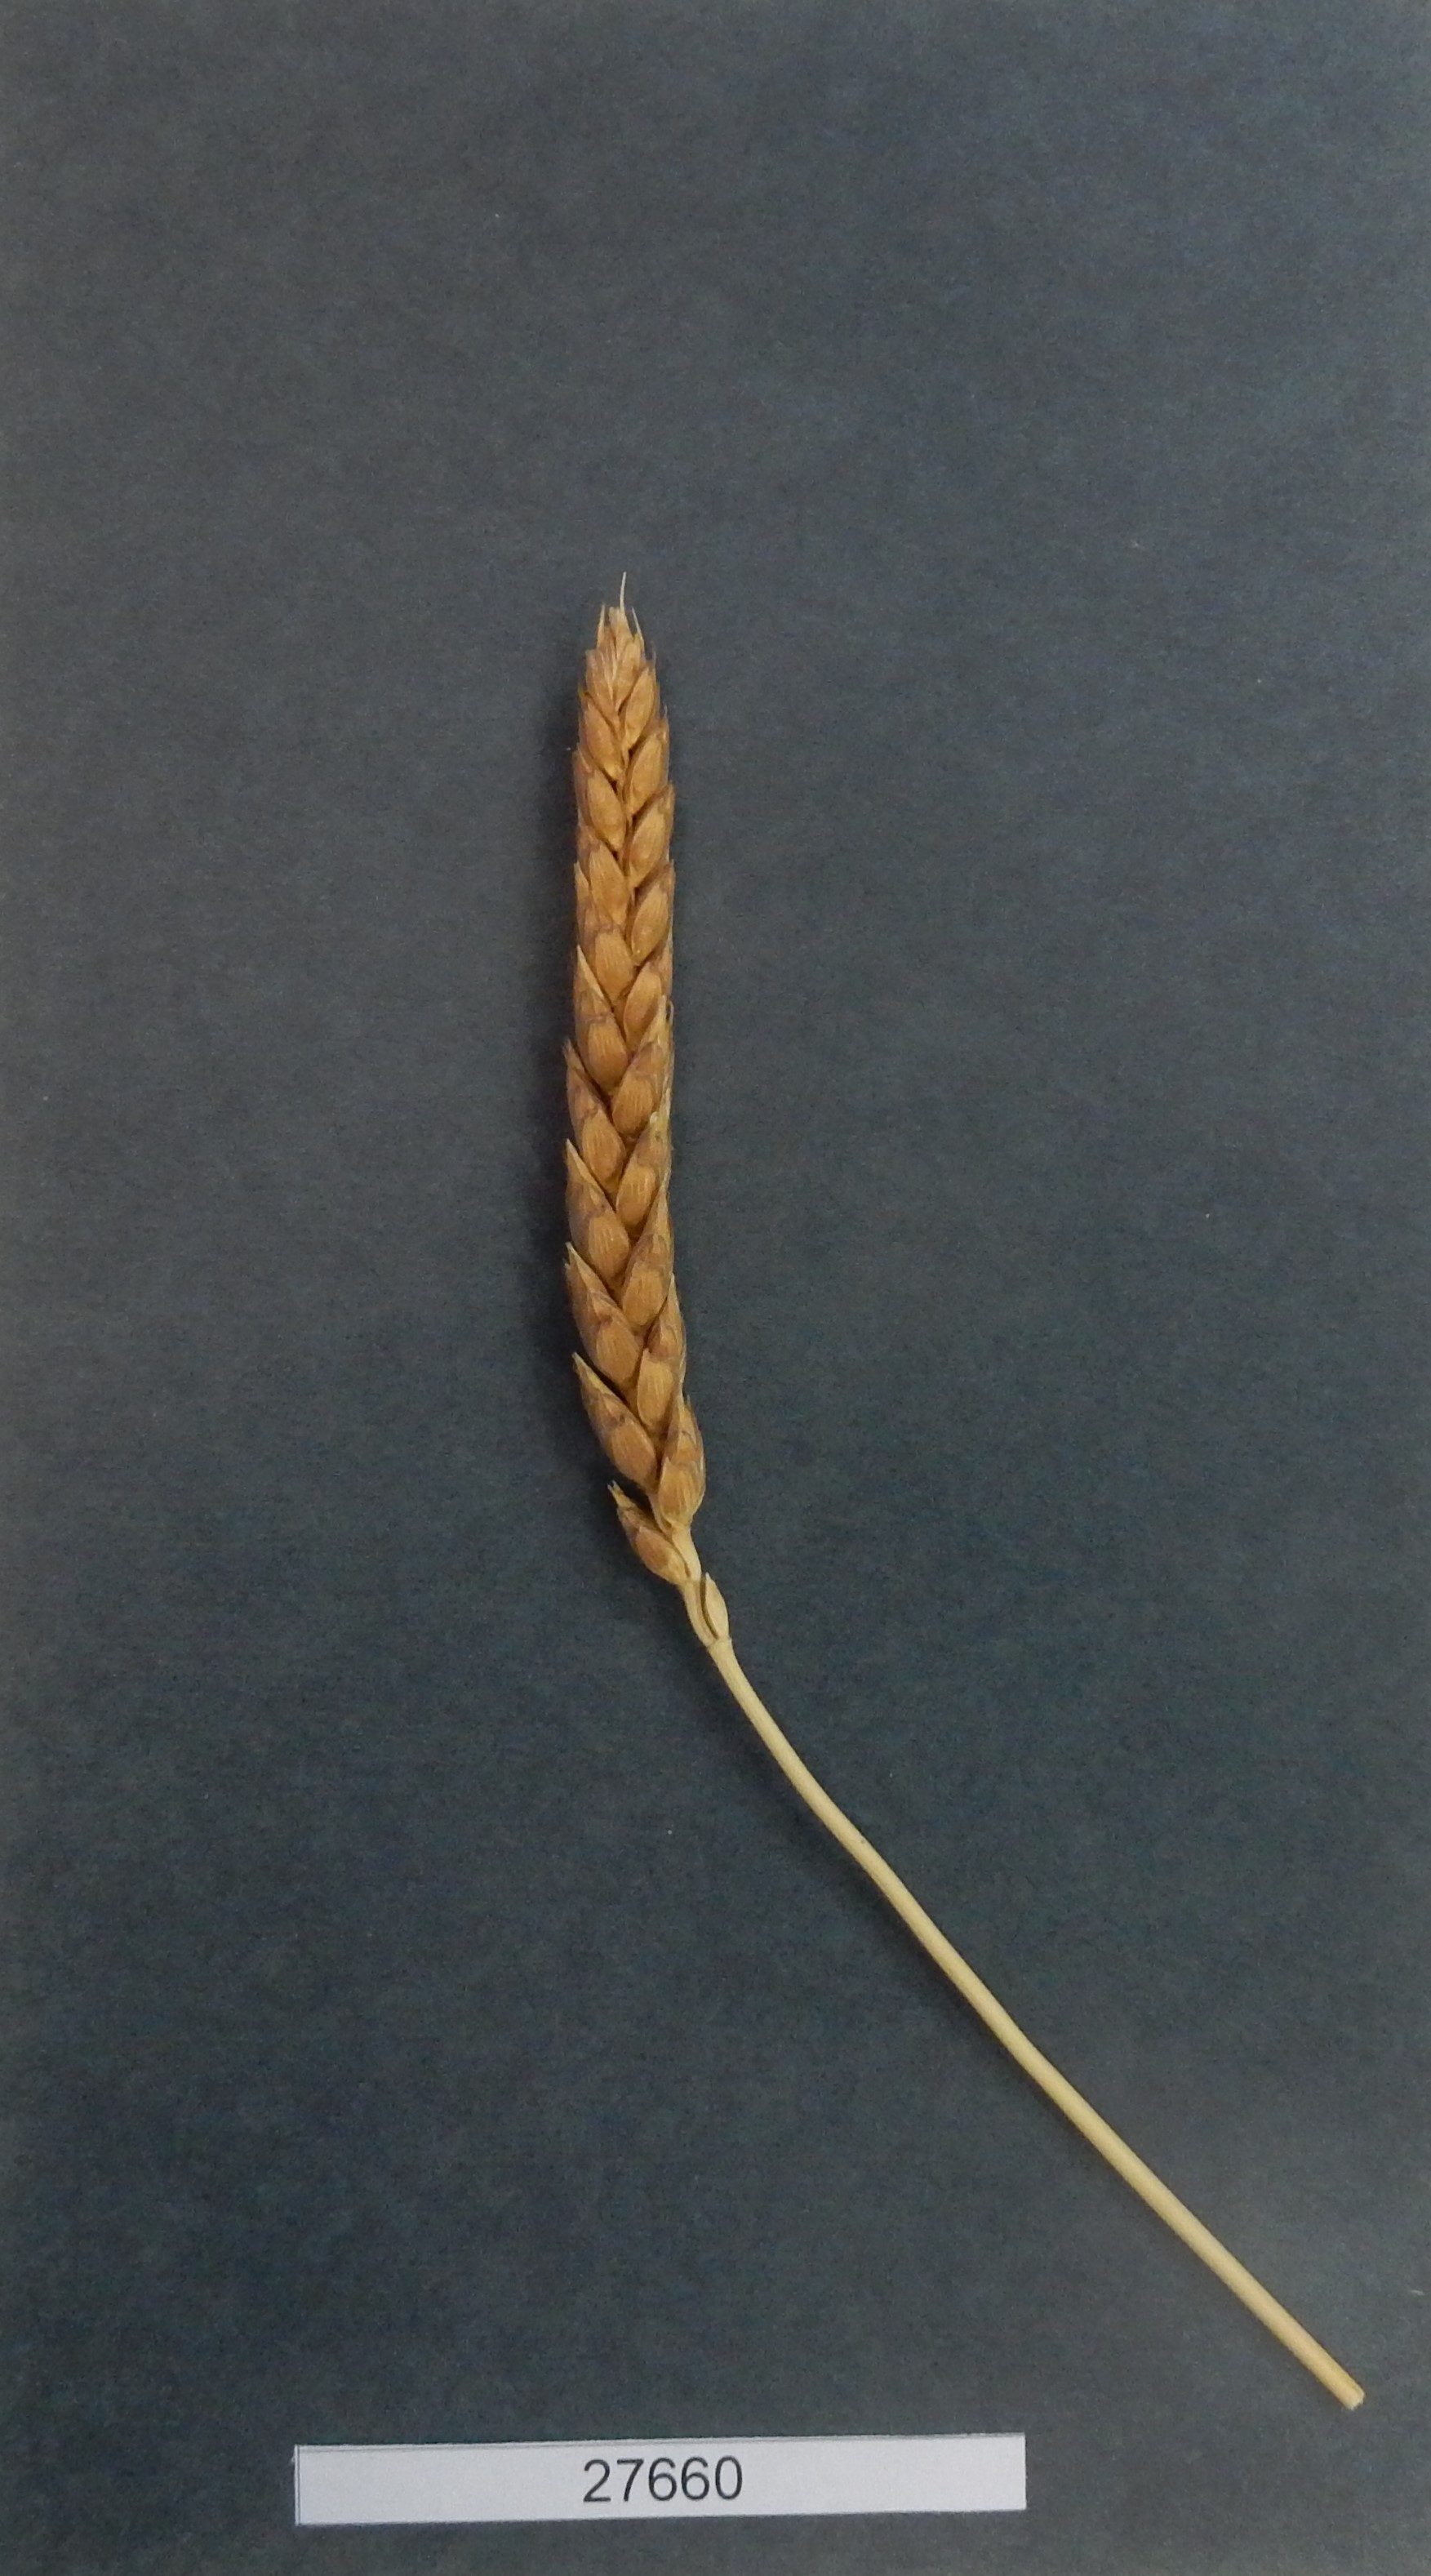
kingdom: Plantae
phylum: Tracheophyta
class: Liliopsida
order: Poales
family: Poaceae
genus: Triticum
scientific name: Triticum aestivum
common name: Common wheat
